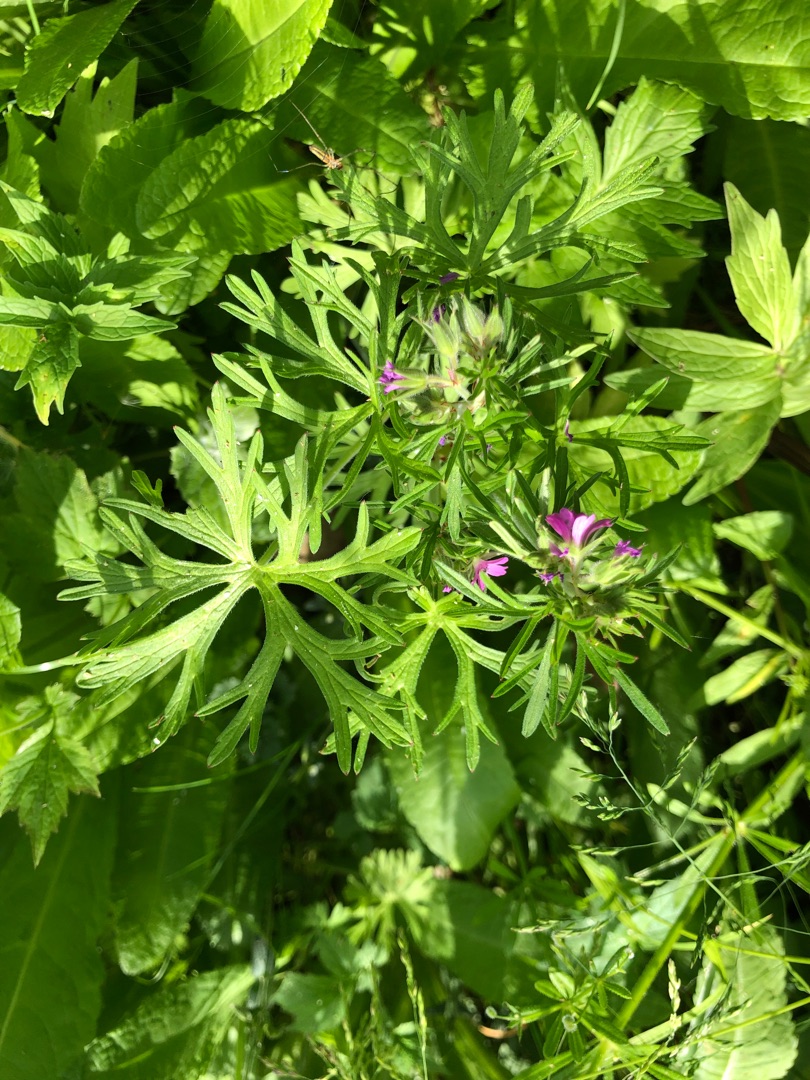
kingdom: Plantae
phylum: Tracheophyta
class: Magnoliopsida
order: Geraniales
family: Geraniaceae
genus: Geranium
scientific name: Geranium dissectum
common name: Kløftet storkenæb
